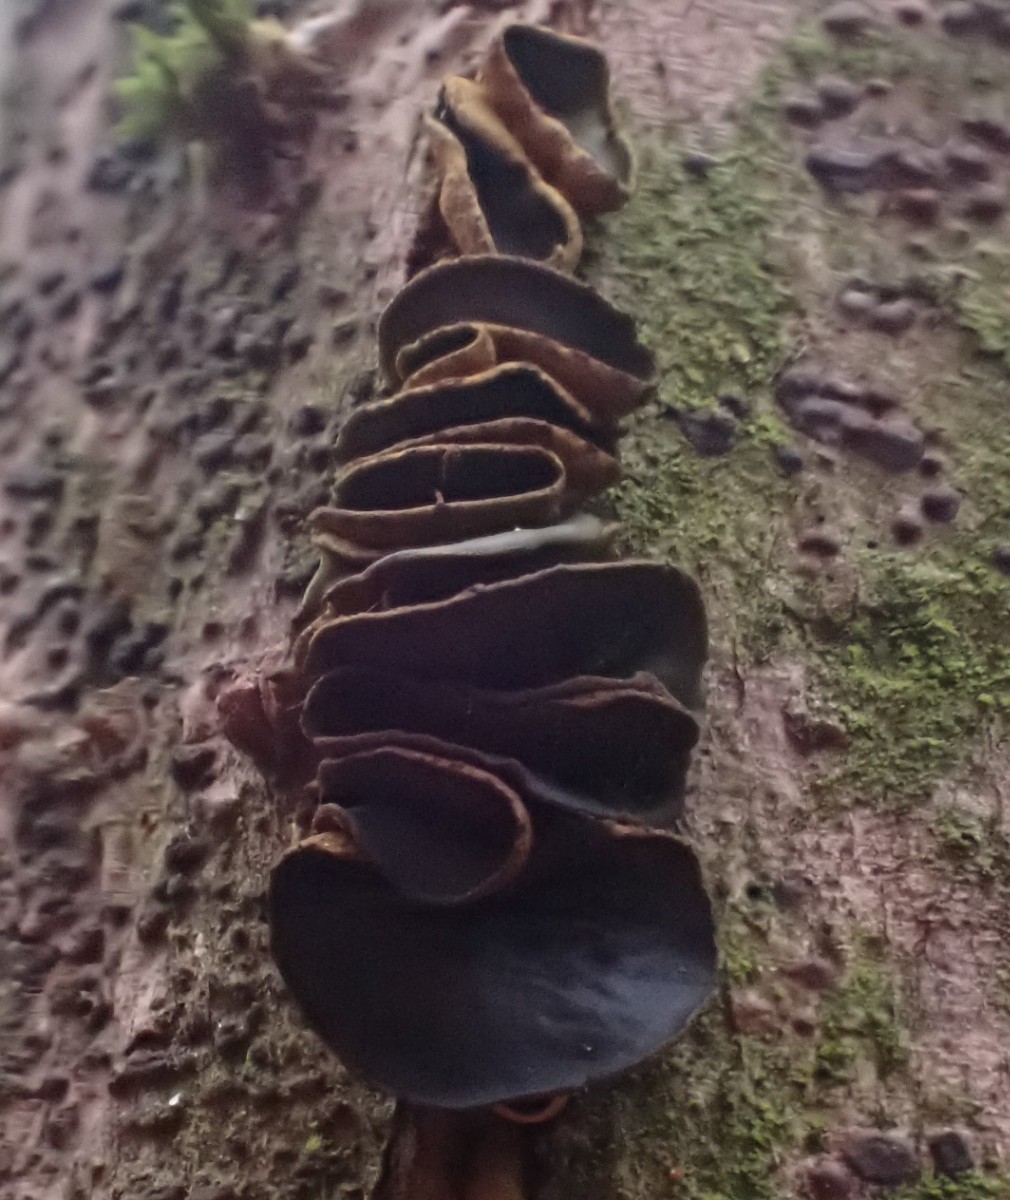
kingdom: Fungi
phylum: Ascomycota
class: Leotiomycetes
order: Helotiales
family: Cordieritidaceae
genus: Ionomidotis
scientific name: Ionomidotis fulvotingens
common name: rødmende tjæreskive
